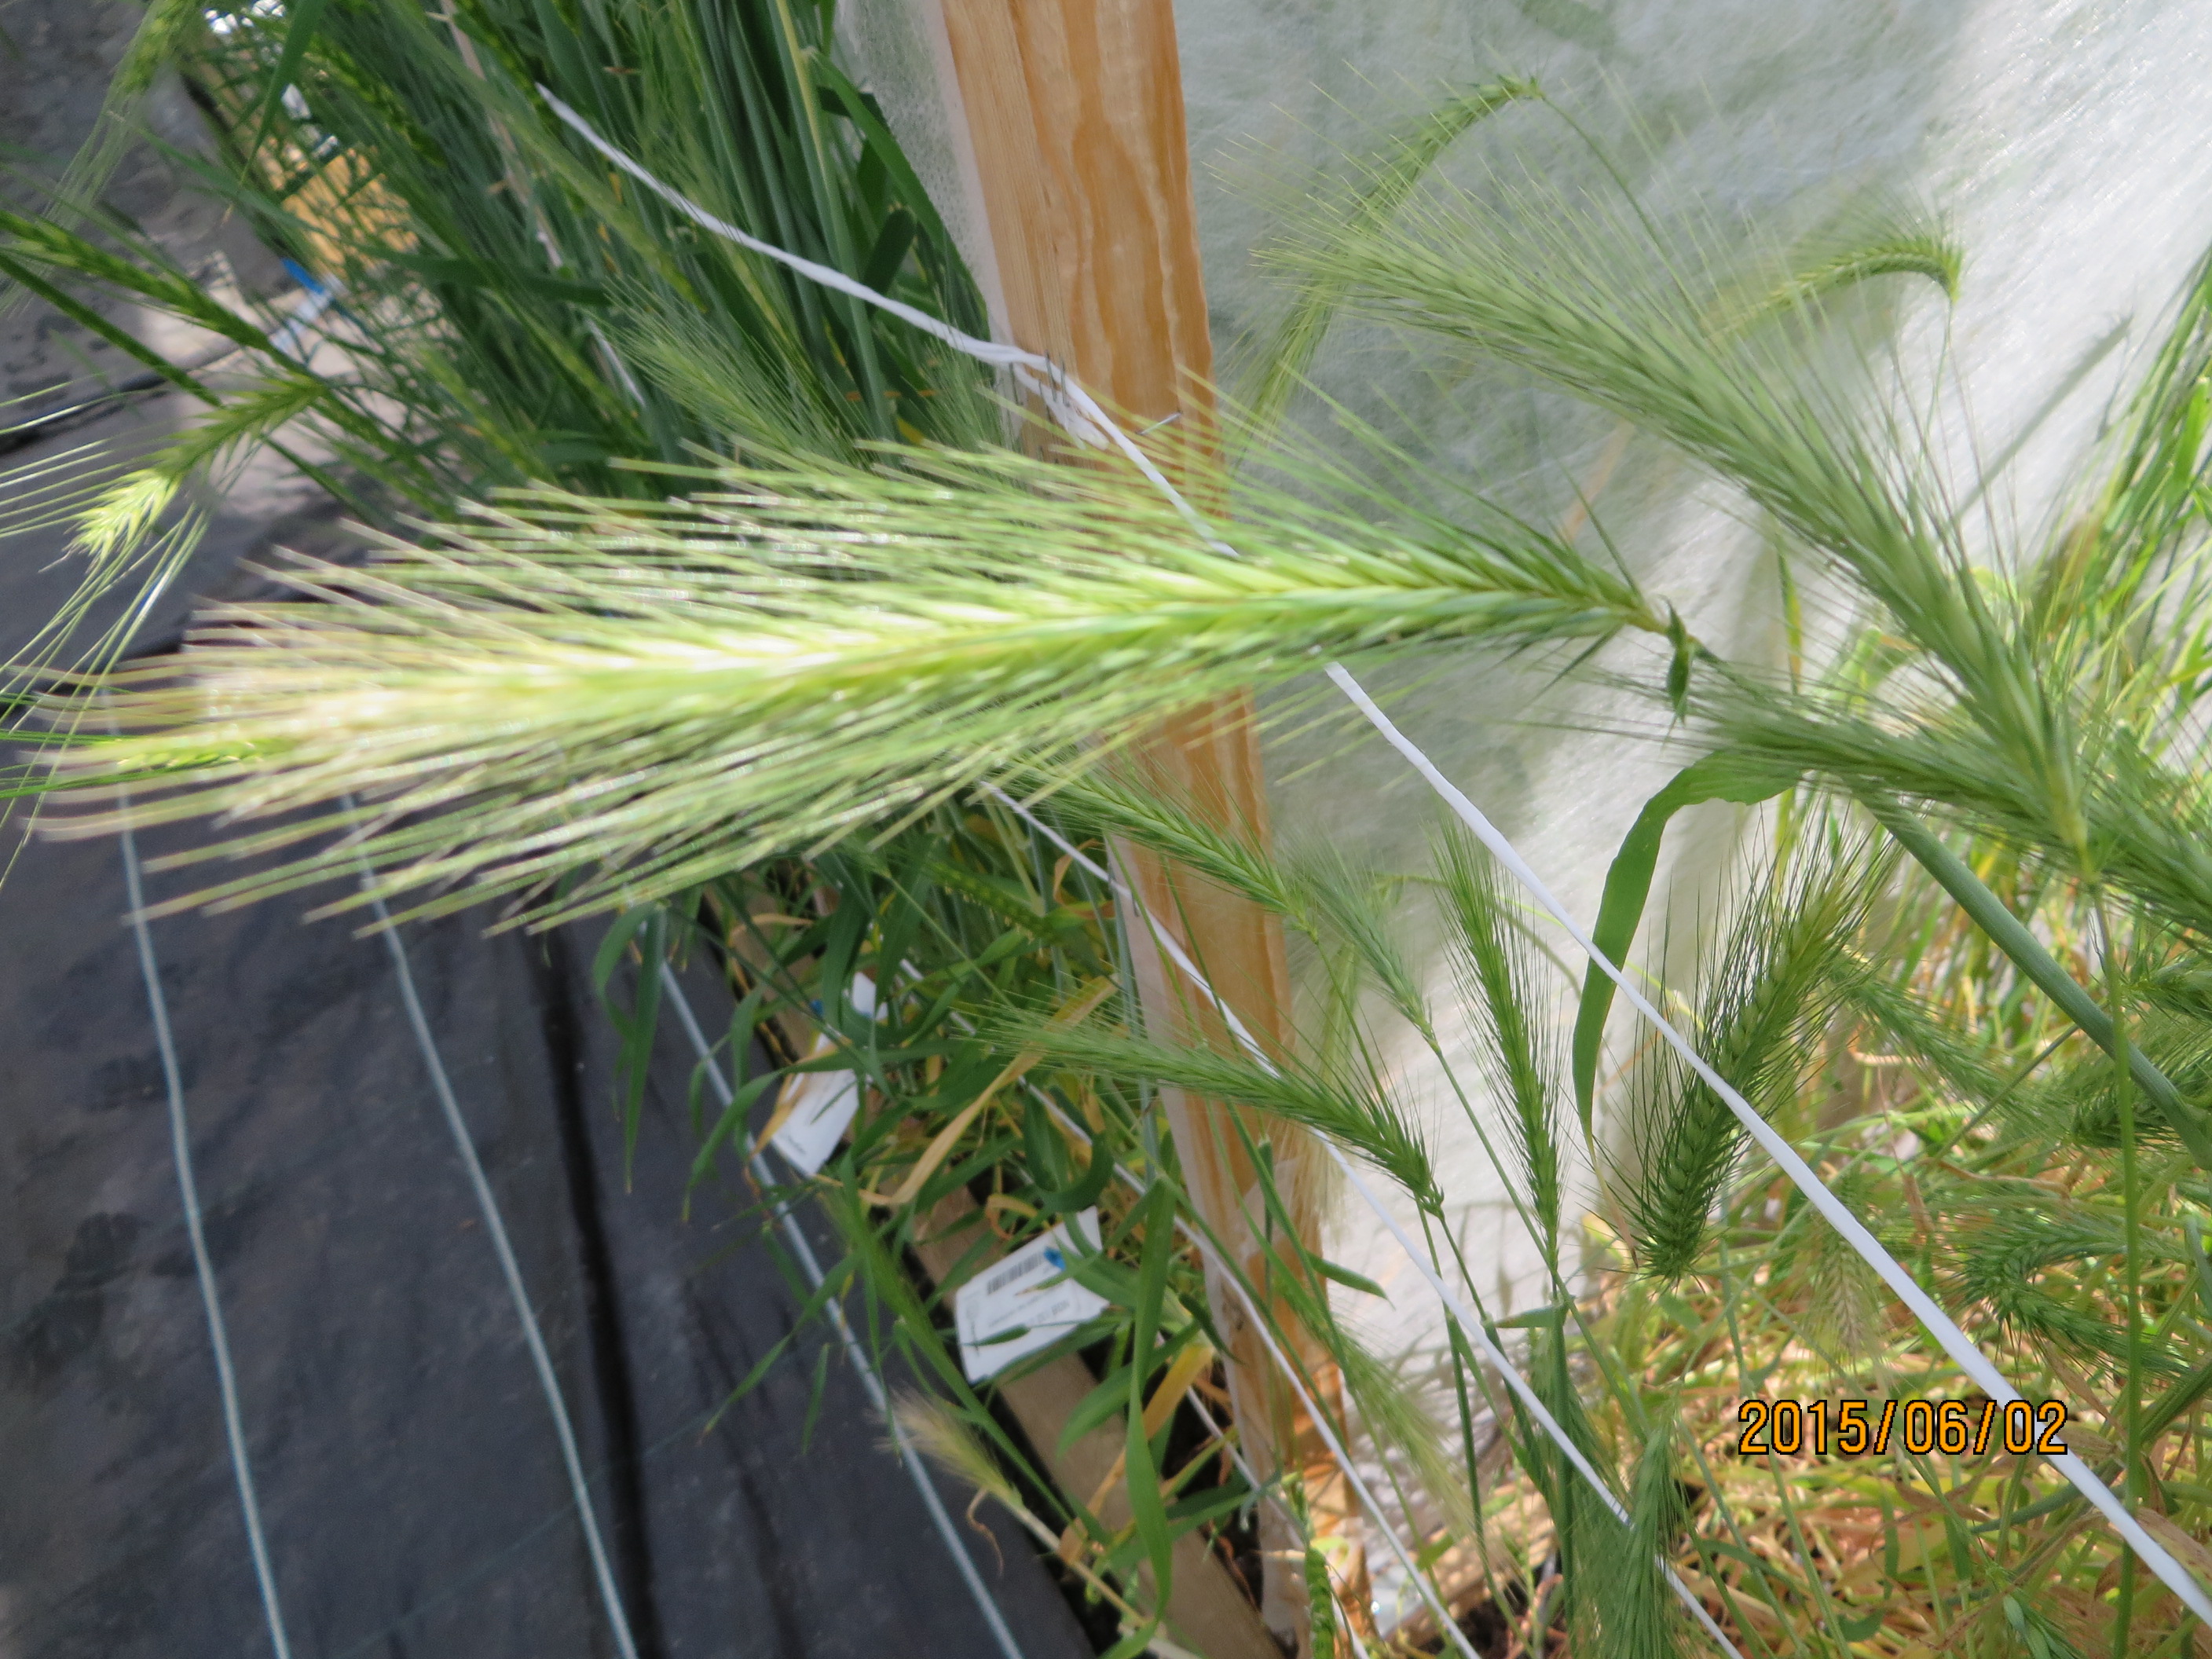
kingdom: Plantae
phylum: Tracheophyta
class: Liliopsida
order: Poales
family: Poaceae
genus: Hordeum
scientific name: Hordeum murinum
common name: Wall barley
